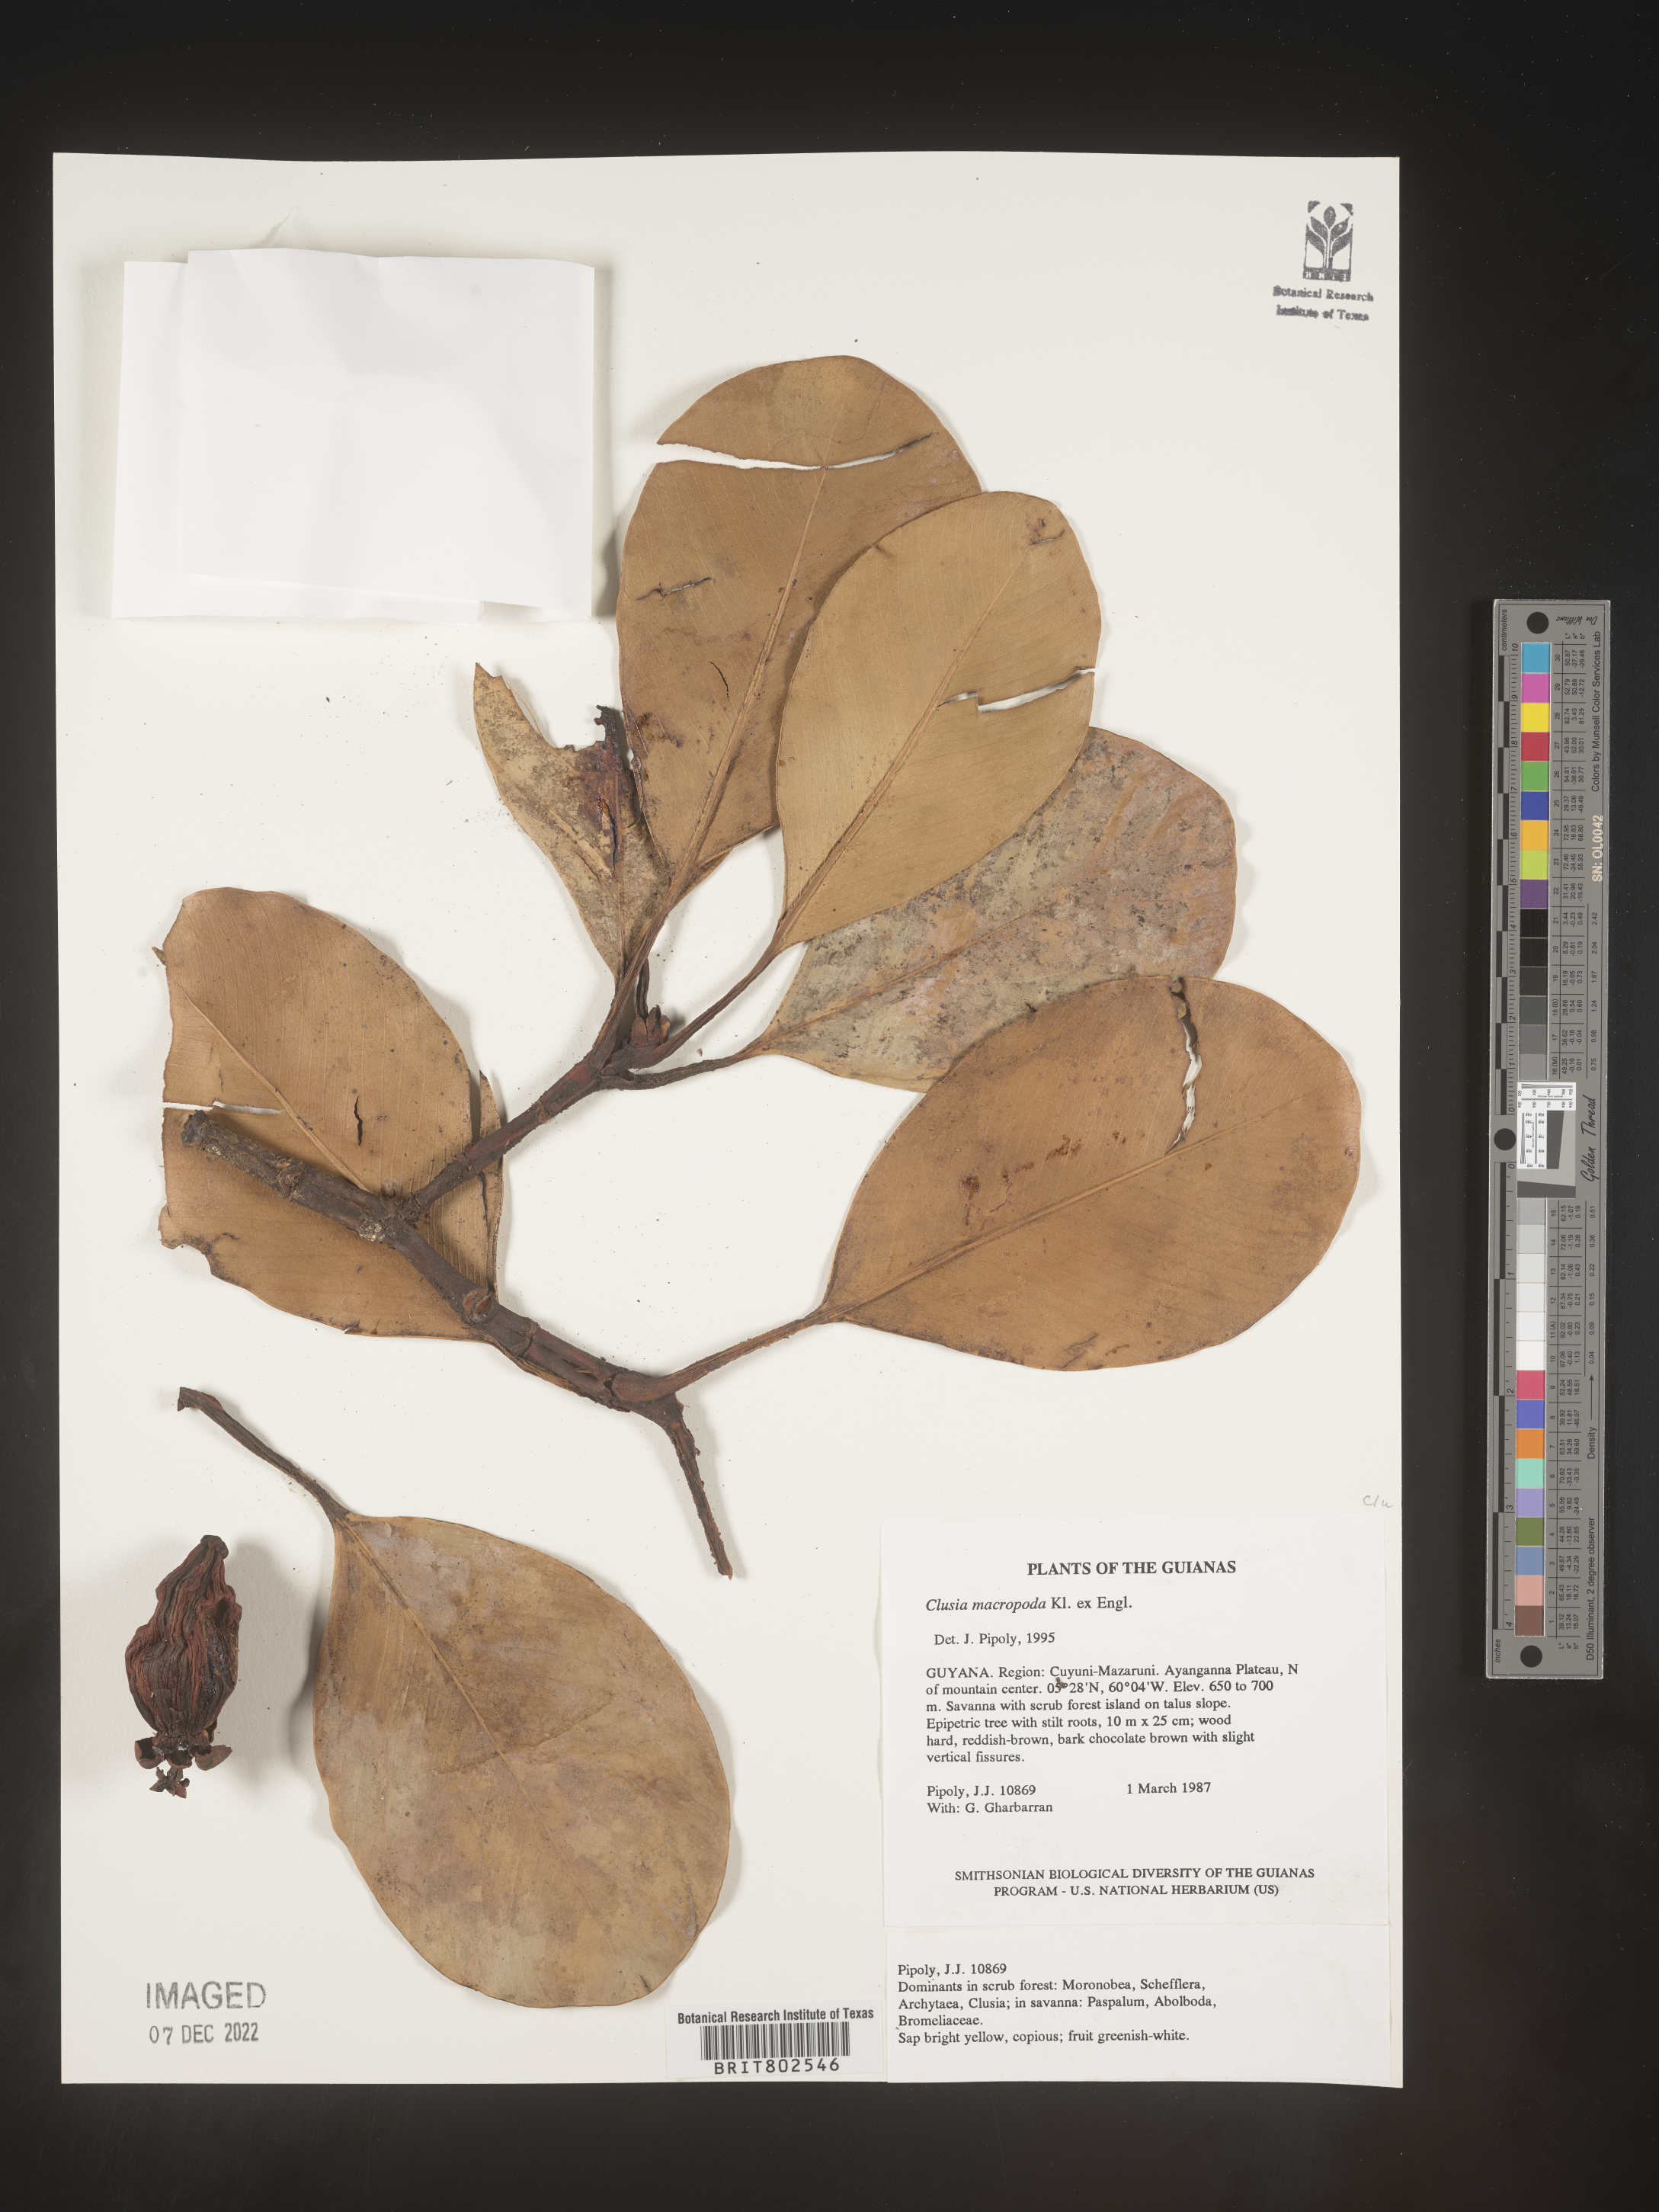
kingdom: Plantae
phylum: Tracheophyta
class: Magnoliopsida
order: Malpighiales
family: Clusiaceae
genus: Clusia
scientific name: Clusia
